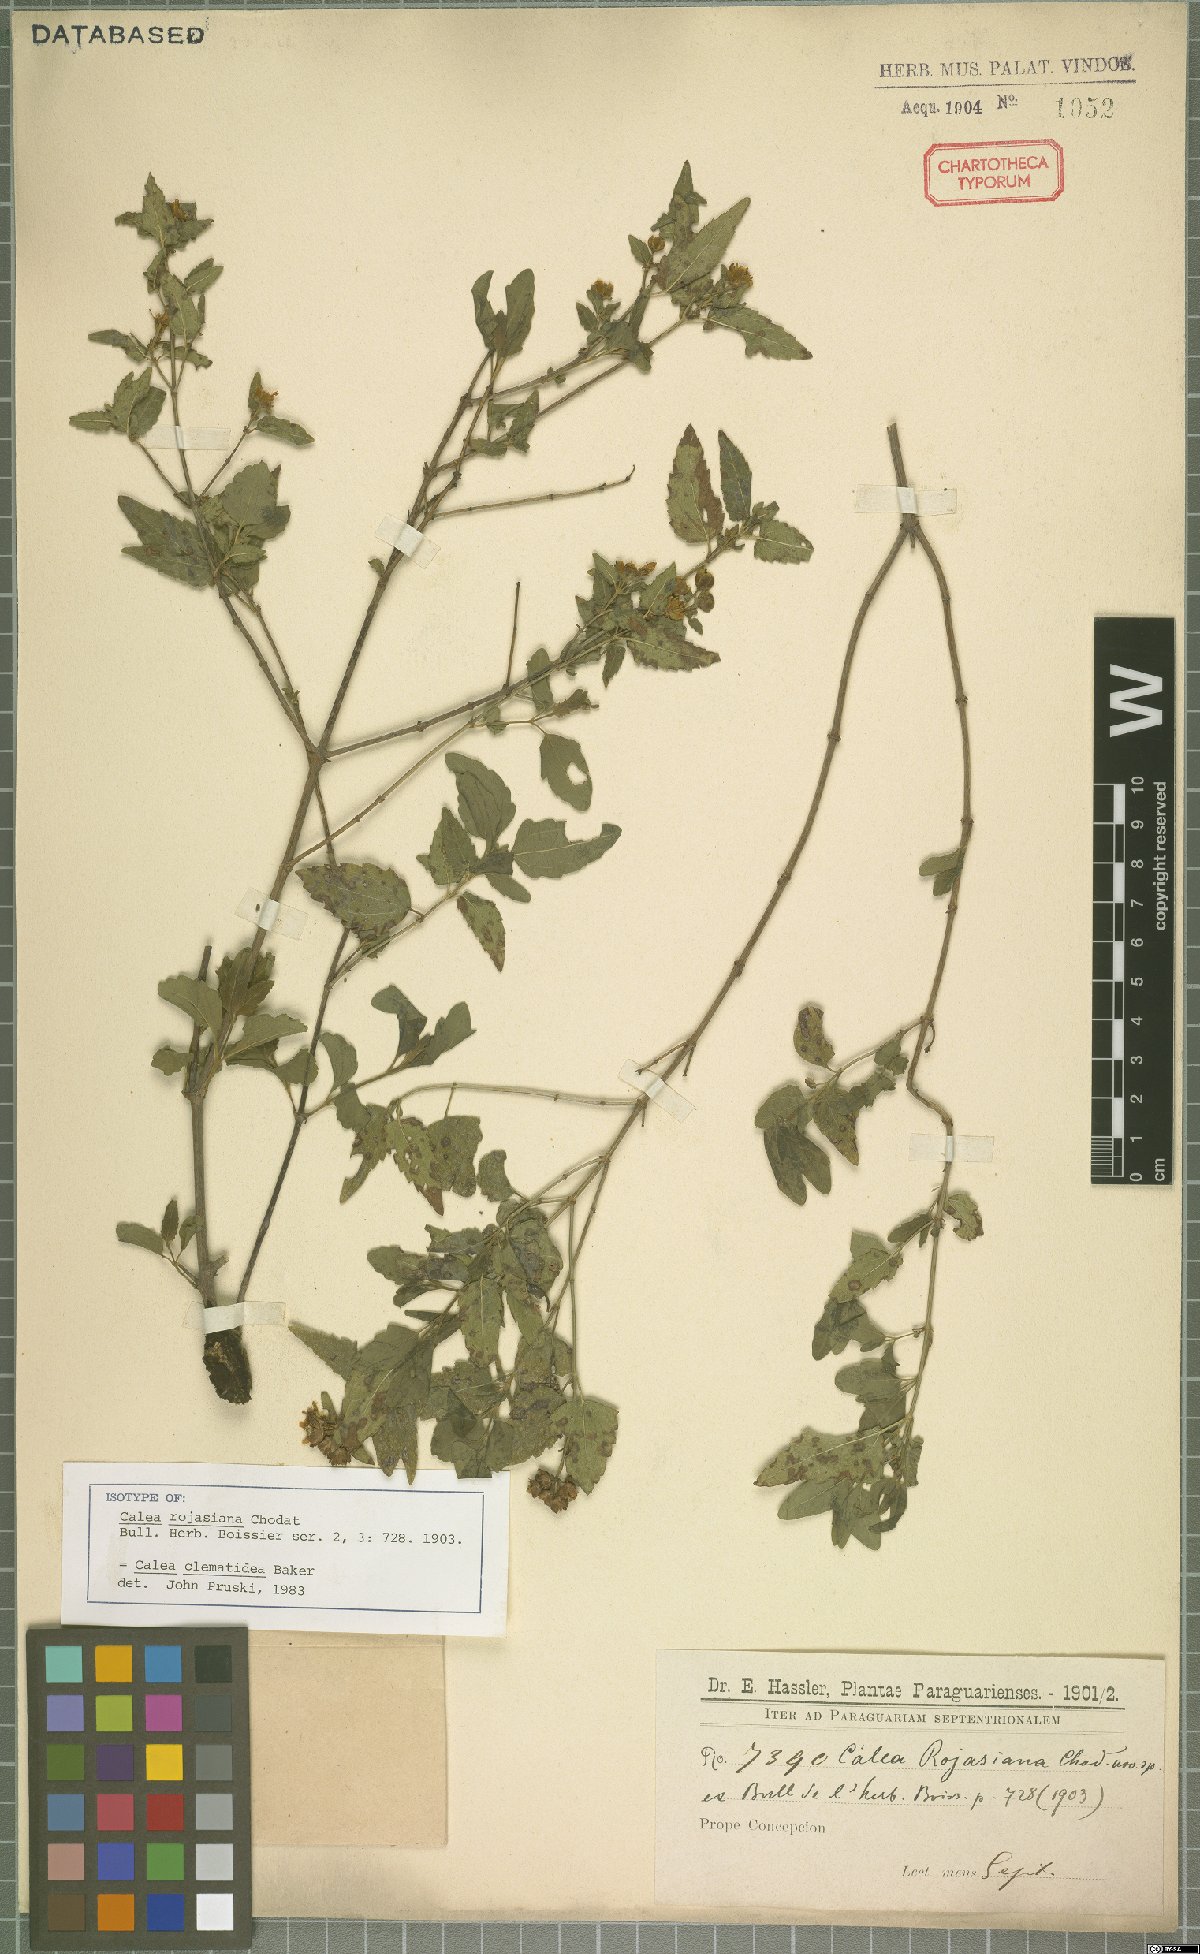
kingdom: Plantae
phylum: Tracheophyta
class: Magnoliopsida
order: Asterales
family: Asteraceae
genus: Calea
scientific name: Calea clematidea
